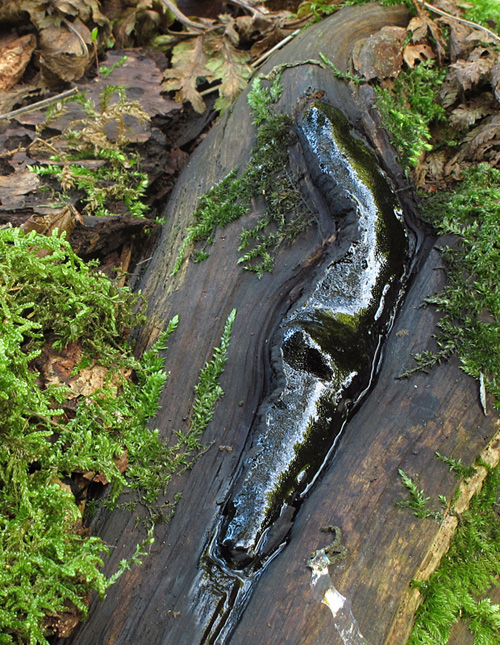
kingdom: Fungi
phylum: Ascomycota
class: Sordariomycetes
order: Boliniales
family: Boliniaceae
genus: Camarops
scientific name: Camarops polysperma
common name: elle-kulsnegl
